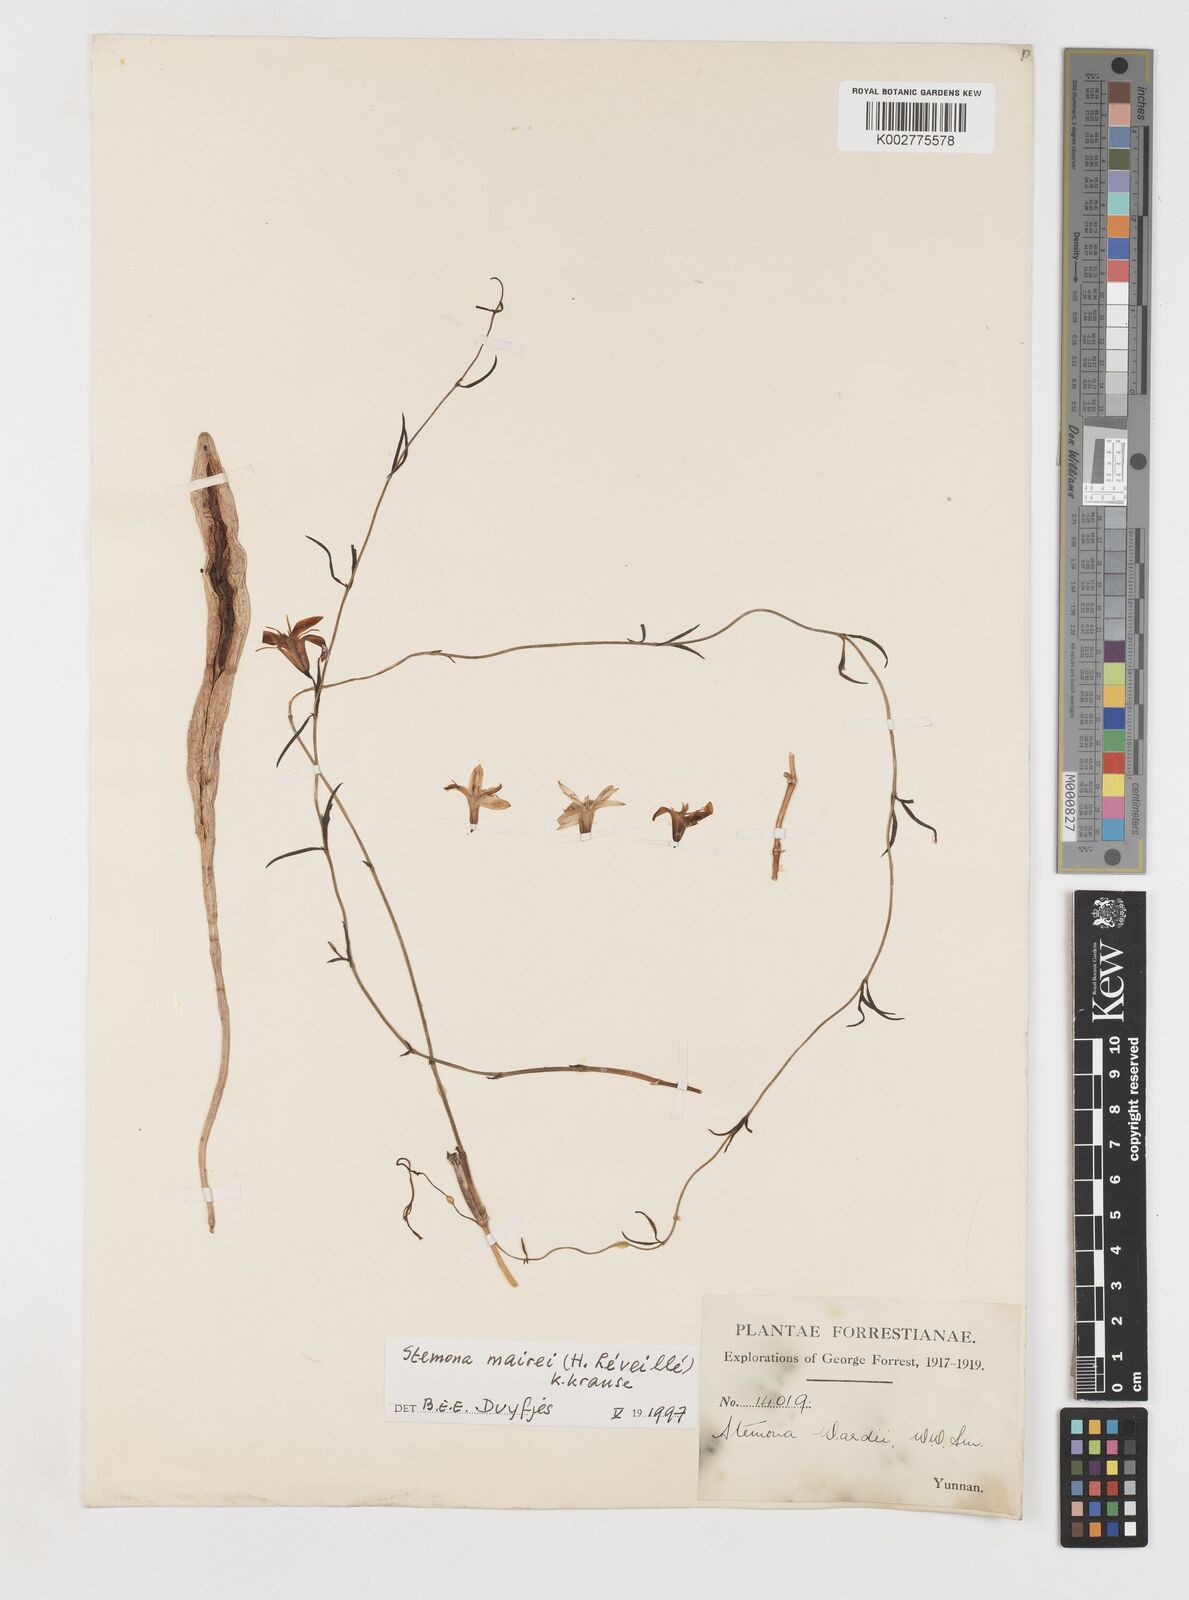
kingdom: Plantae
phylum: Tracheophyta
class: Liliopsida
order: Pandanales
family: Stemonaceae
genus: Stemona
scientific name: Stemona mairei
